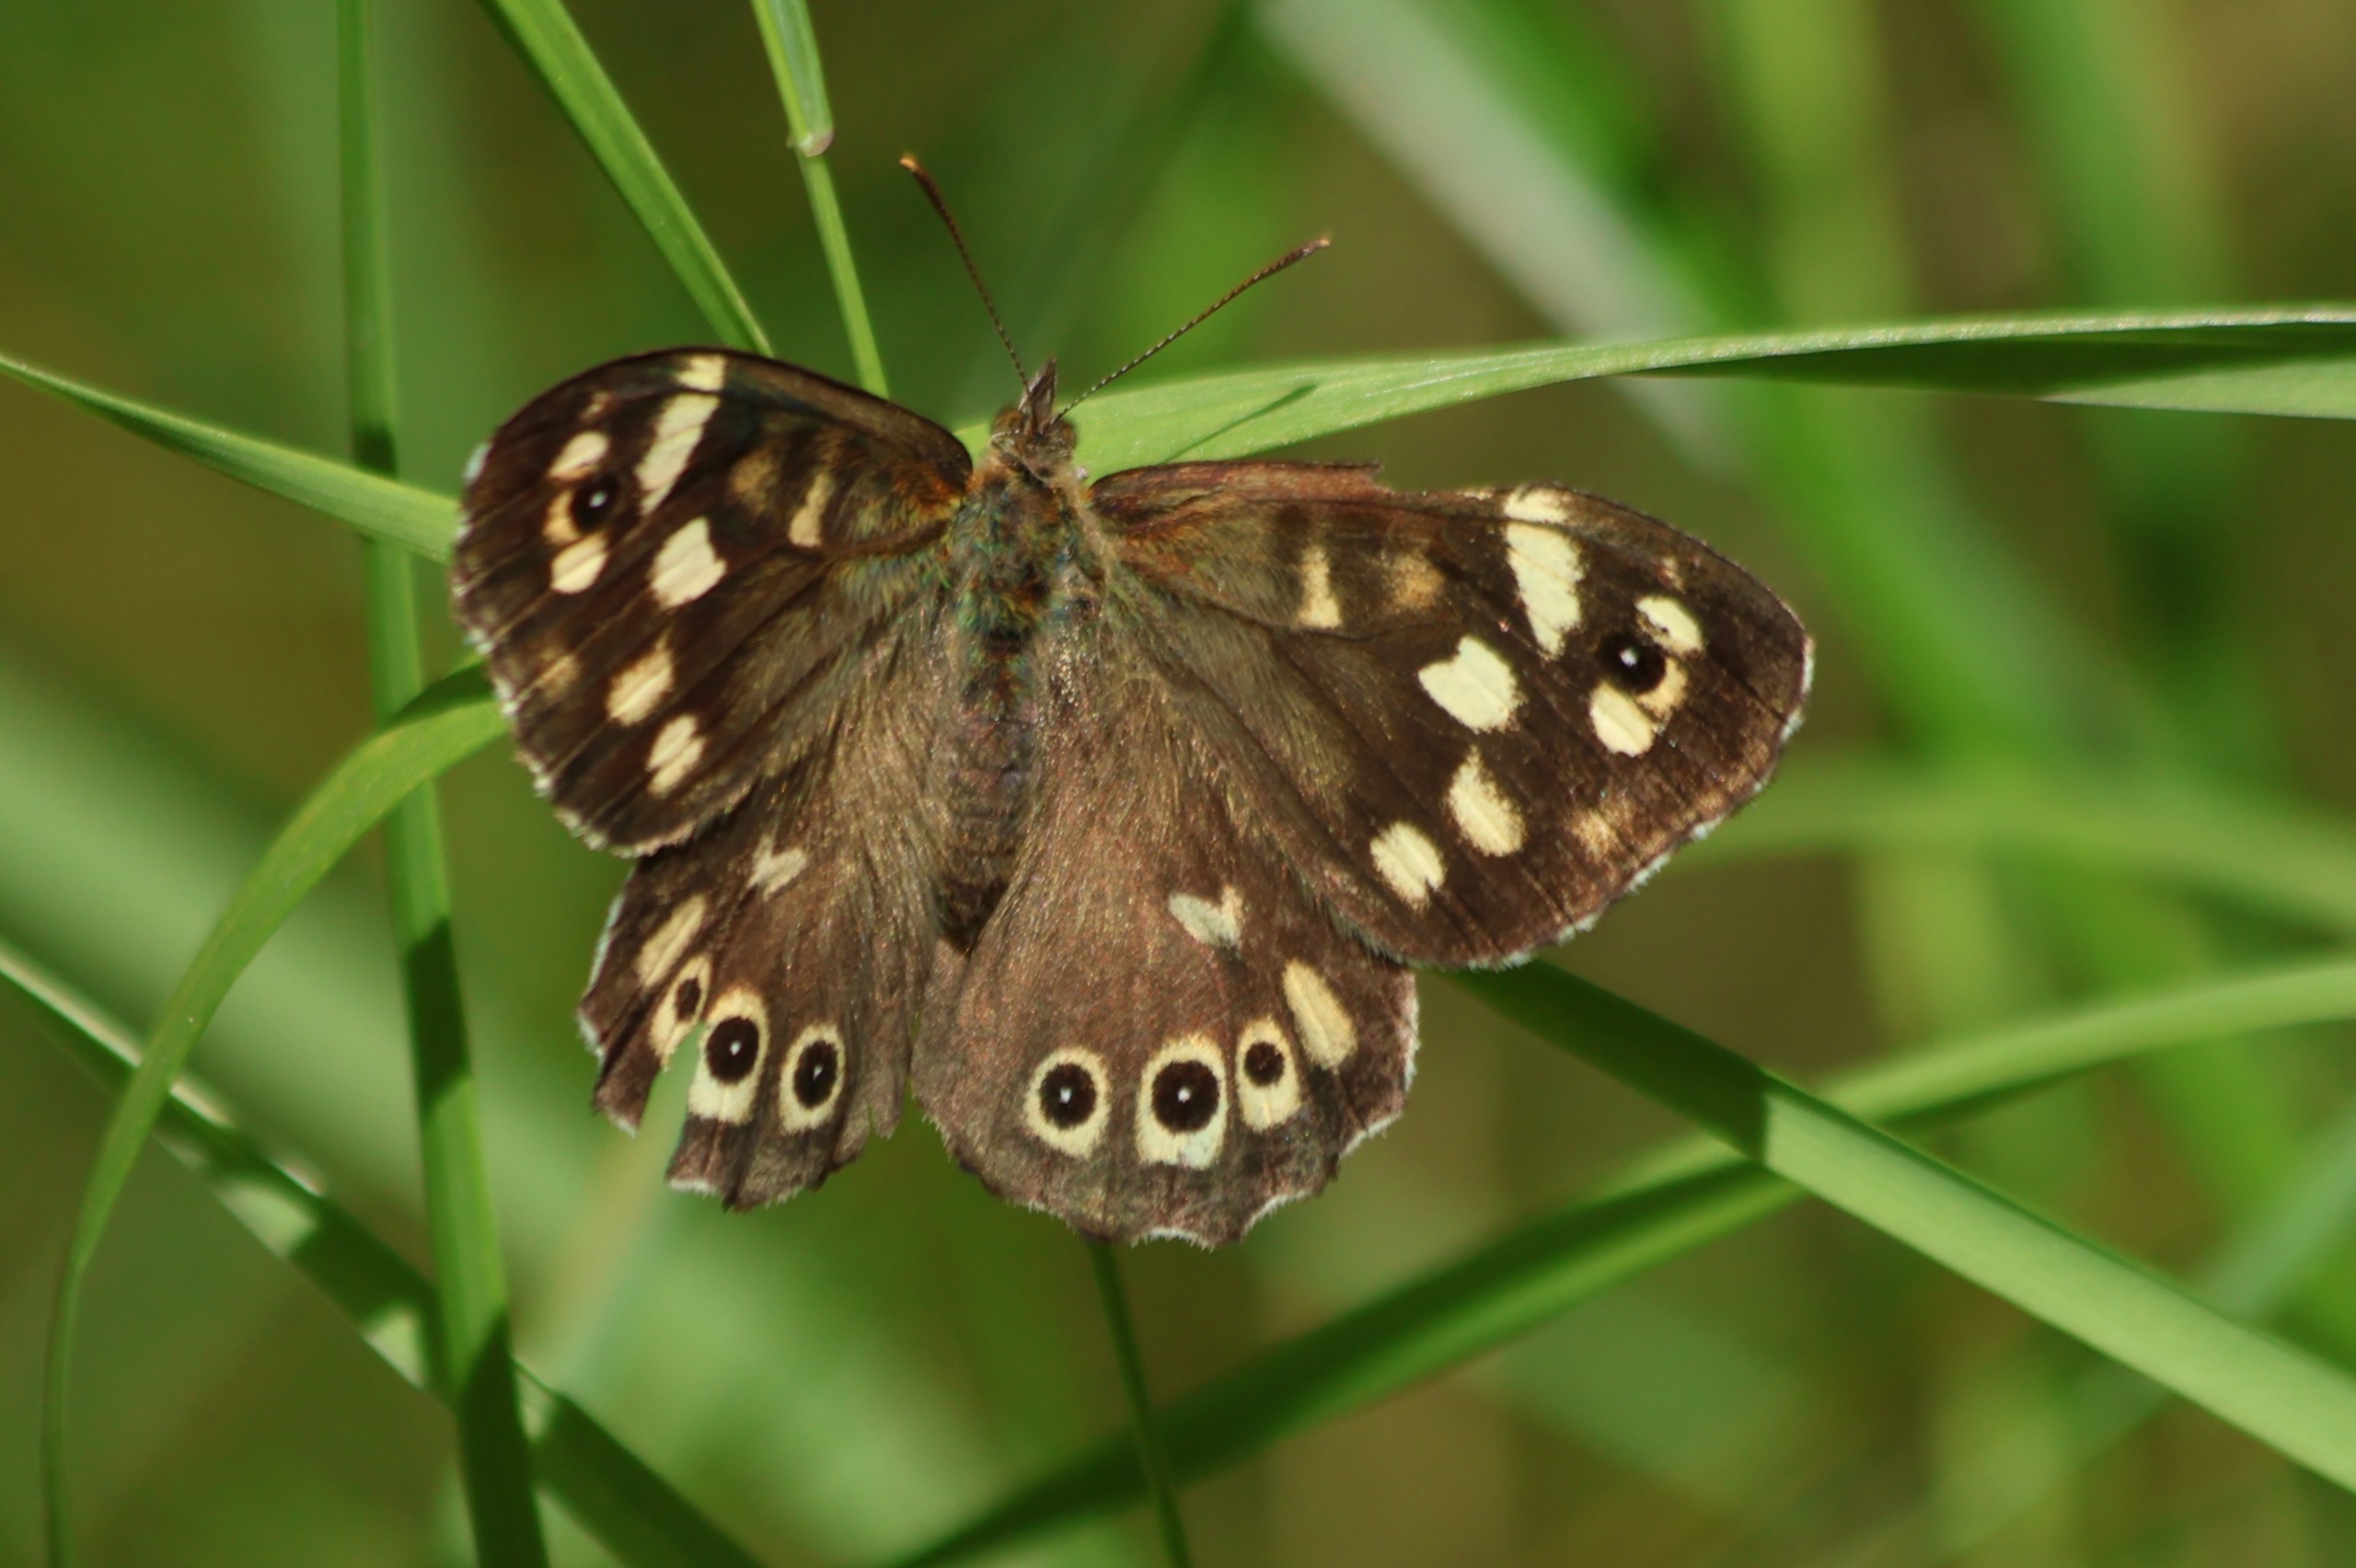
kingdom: Animalia
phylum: Arthropoda
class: Insecta
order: Lepidoptera
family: Nymphalidae
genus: Pararge
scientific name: Pararge aegeria
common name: Skovrandøje
